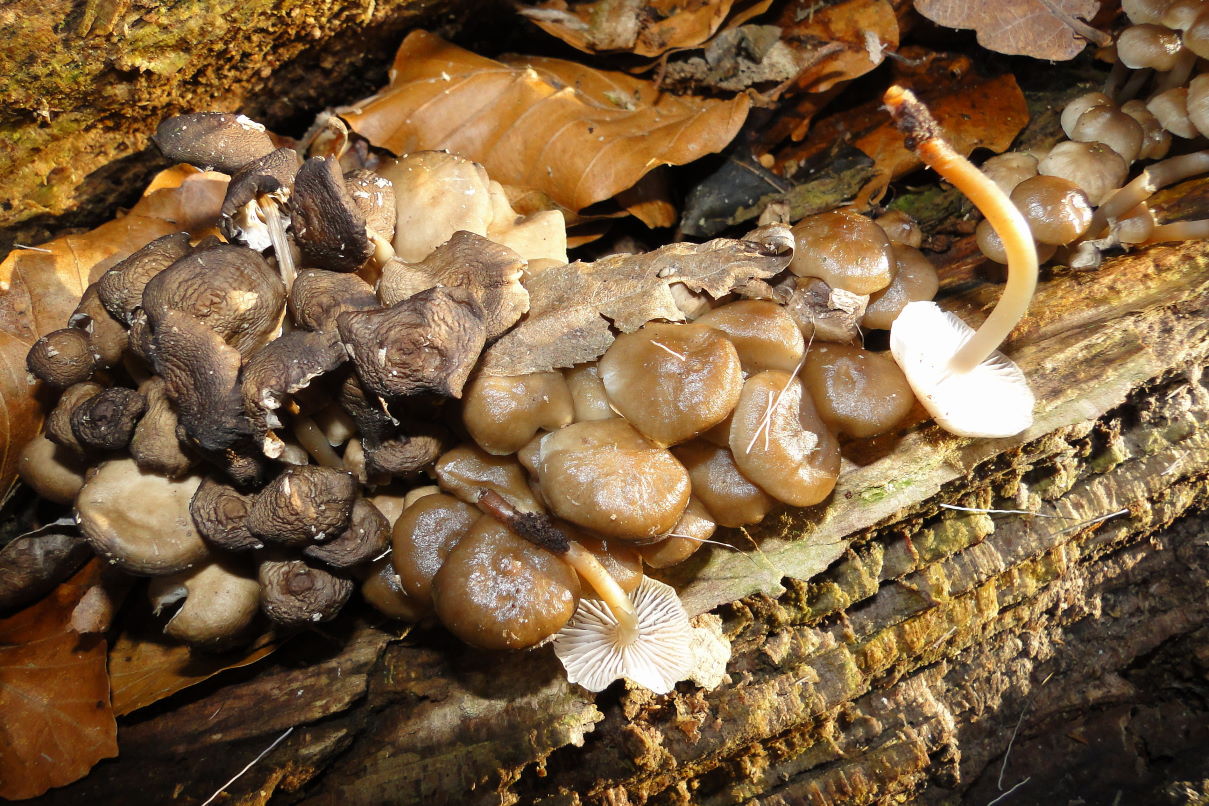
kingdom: Fungi
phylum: Basidiomycota
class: Agaricomycetes
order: Agaricales
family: Mycenaceae
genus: Mycena
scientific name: Mycena tintinnabulum
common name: vinter-huesvamp
